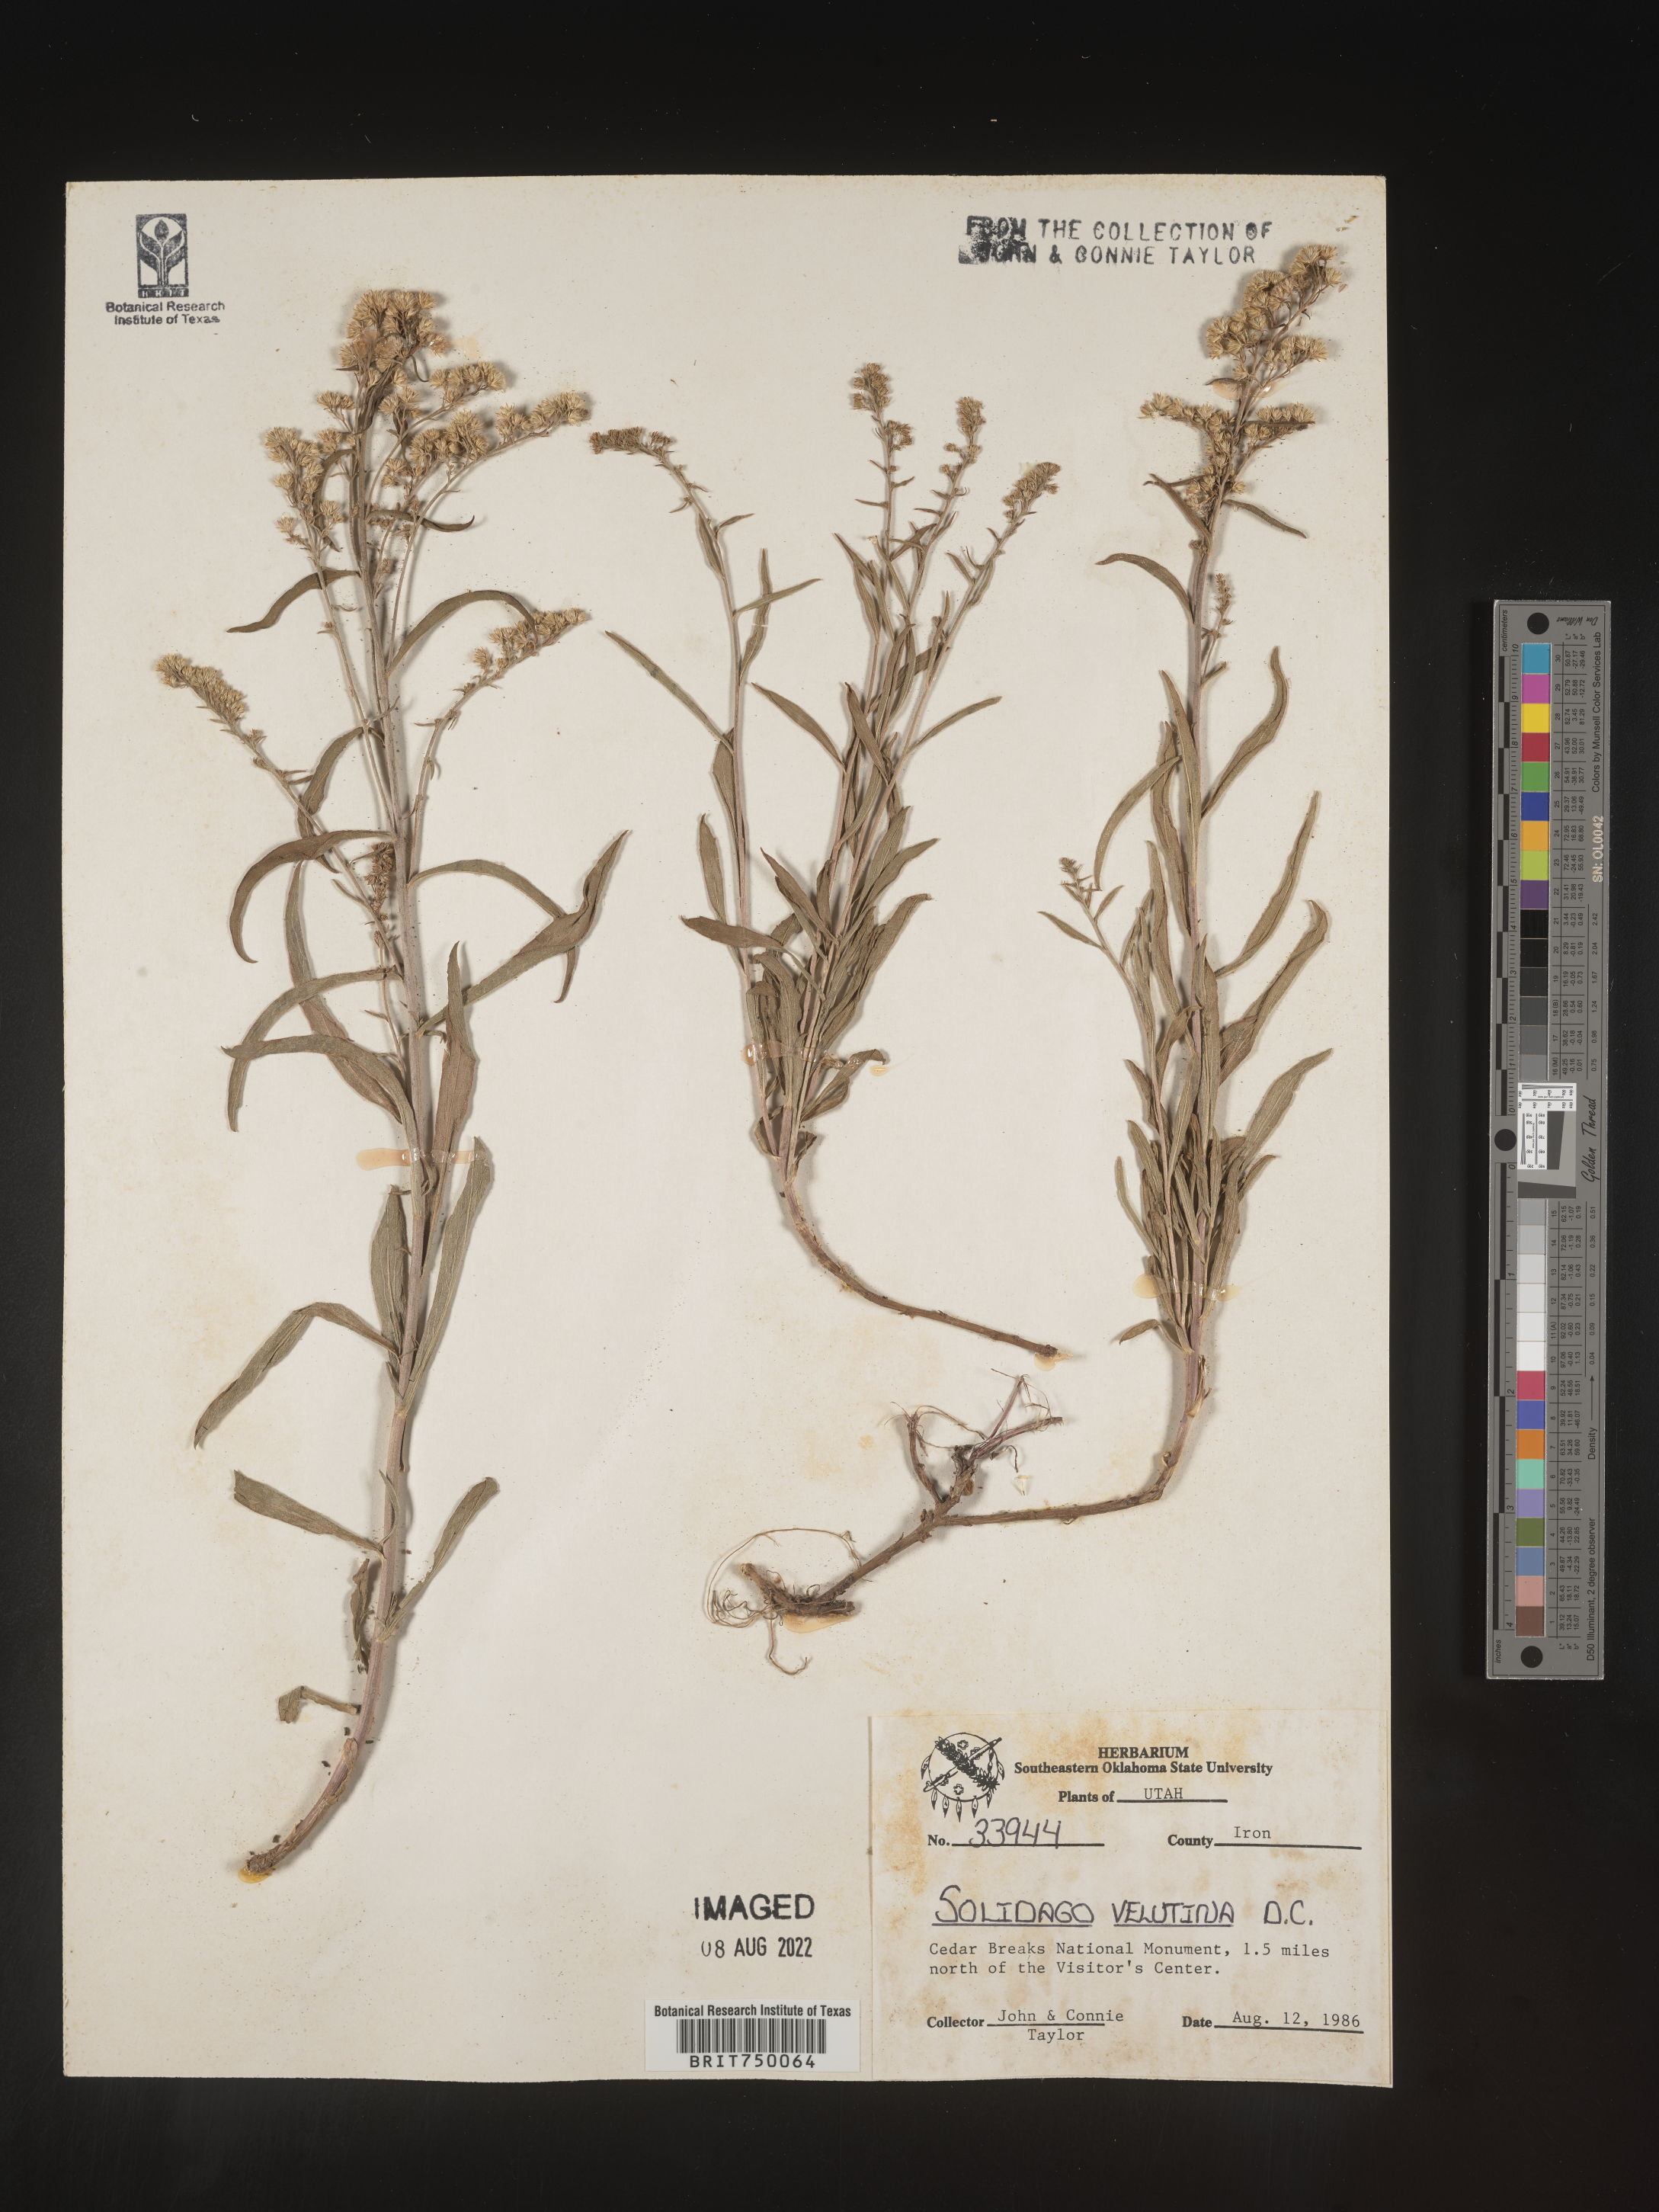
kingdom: Plantae
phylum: Tracheophyta
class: Magnoliopsida
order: Asterales
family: Asteraceae
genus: Solidago
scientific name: Solidago velutina
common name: Three-nerve goldenrod
